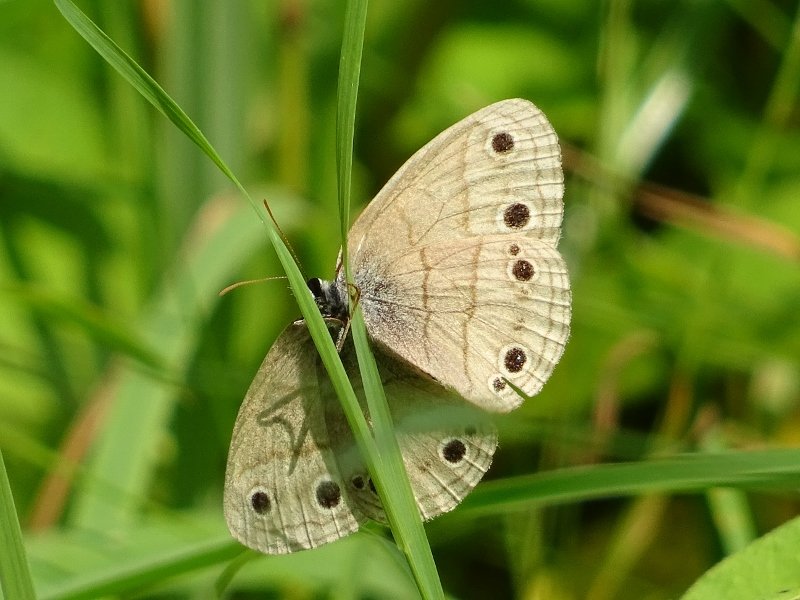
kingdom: Animalia
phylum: Arthropoda
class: Insecta
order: Lepidoptera
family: Nymphalidae
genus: Euptychia
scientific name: Euptychia cymela
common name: Little Wood Satyr
